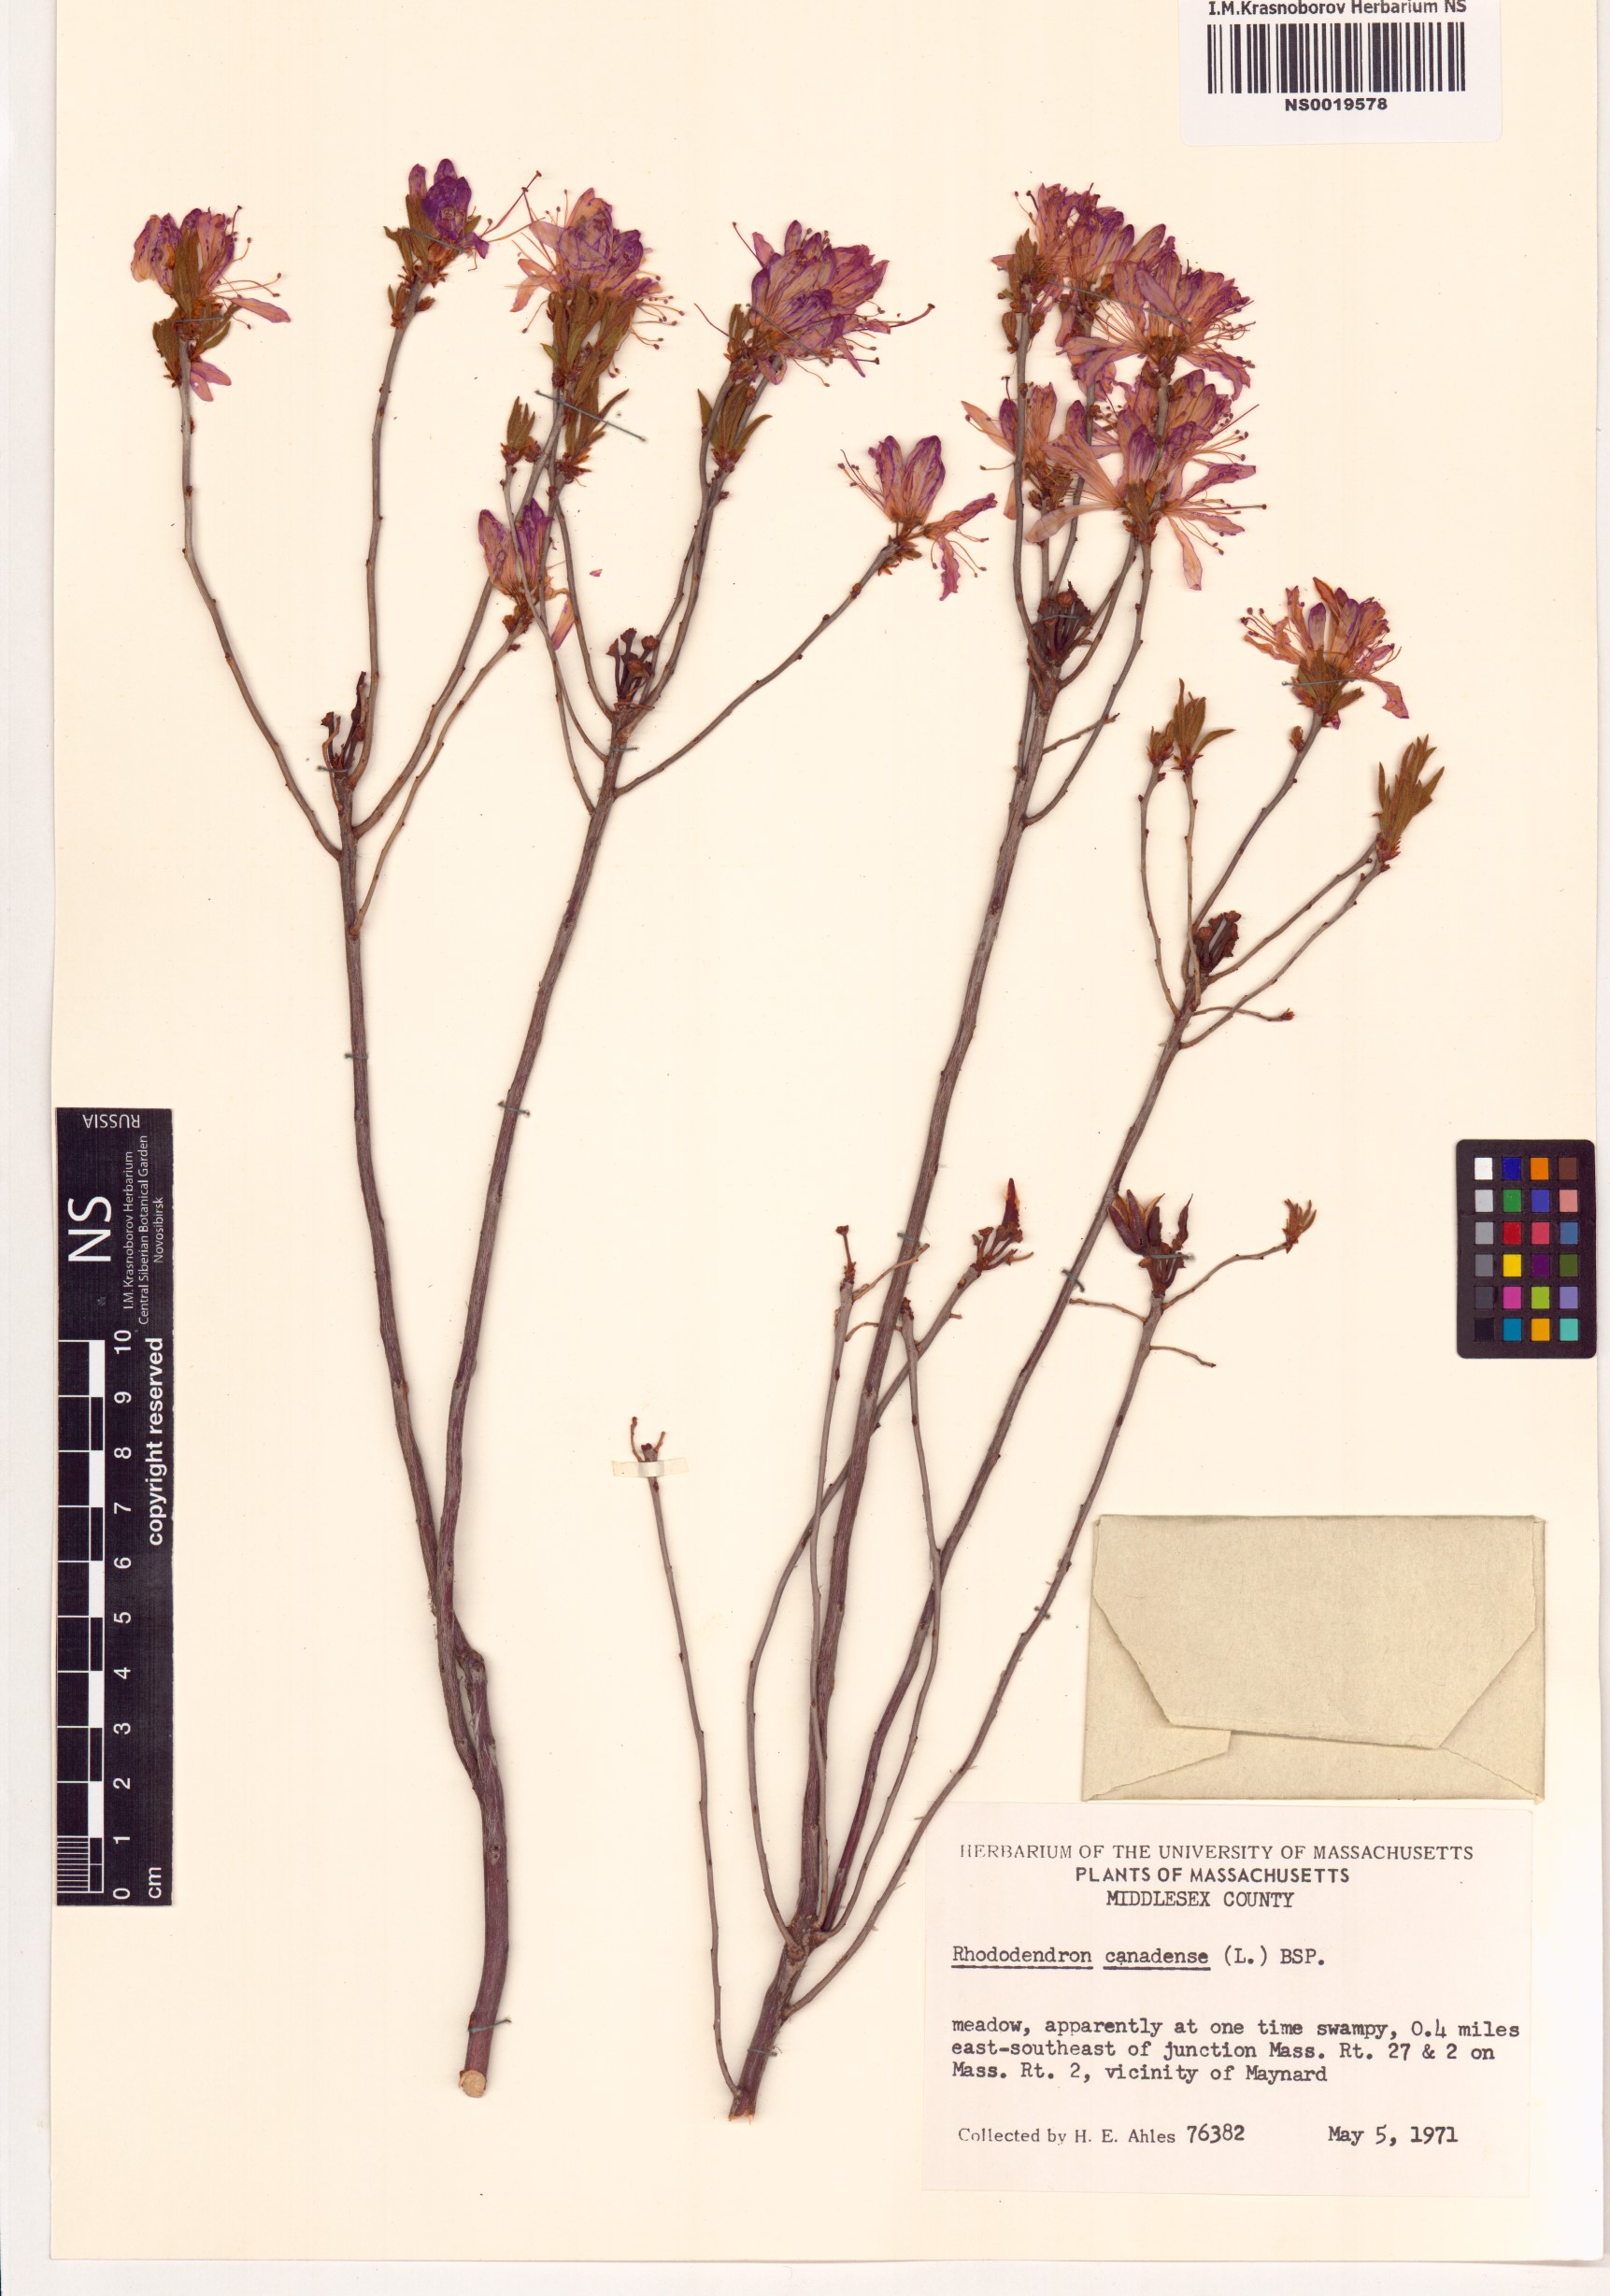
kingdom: Plantae
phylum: Tracheophyta
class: Magnoliopsida
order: Ericales
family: Ericaceae
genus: Rhododendron
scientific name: Rhododendron canadense
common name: Rhodora
